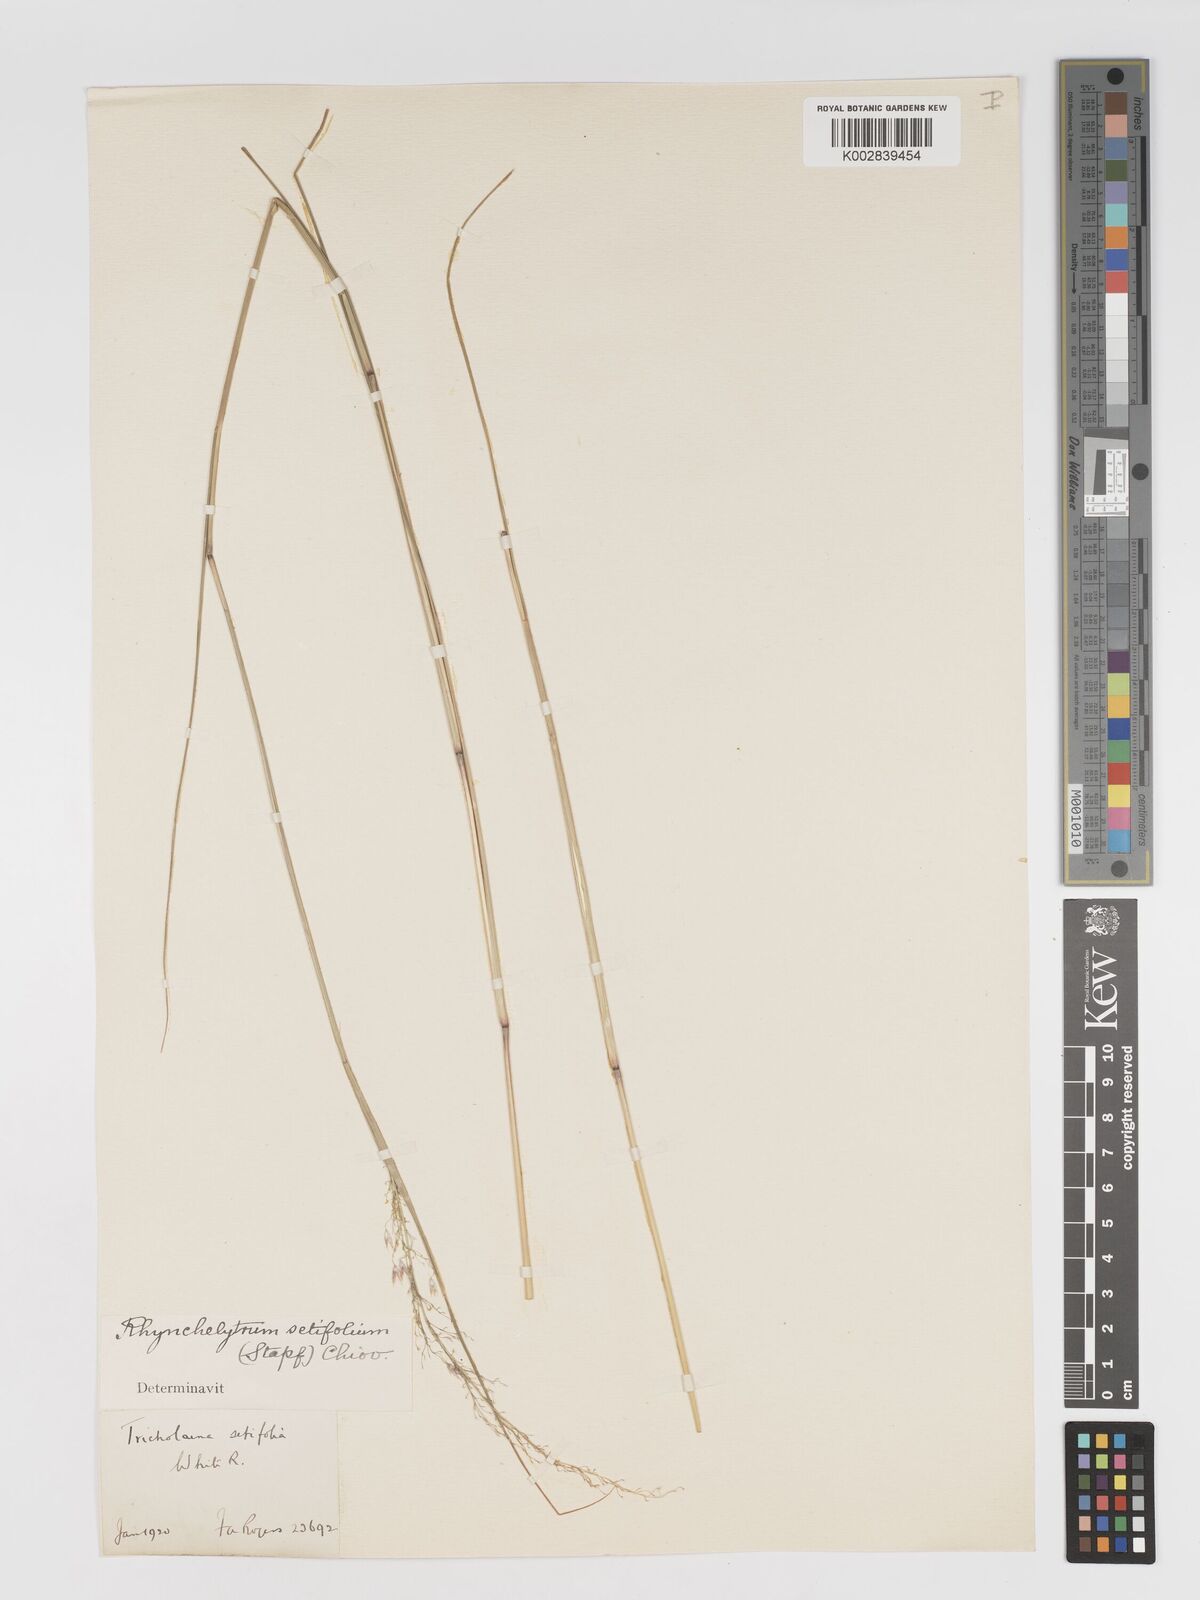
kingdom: Plantae
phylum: Tracheophyta
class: Liliopsida
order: Poales
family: Poaceae
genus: Melinis
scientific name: Melinis nerviglumis
